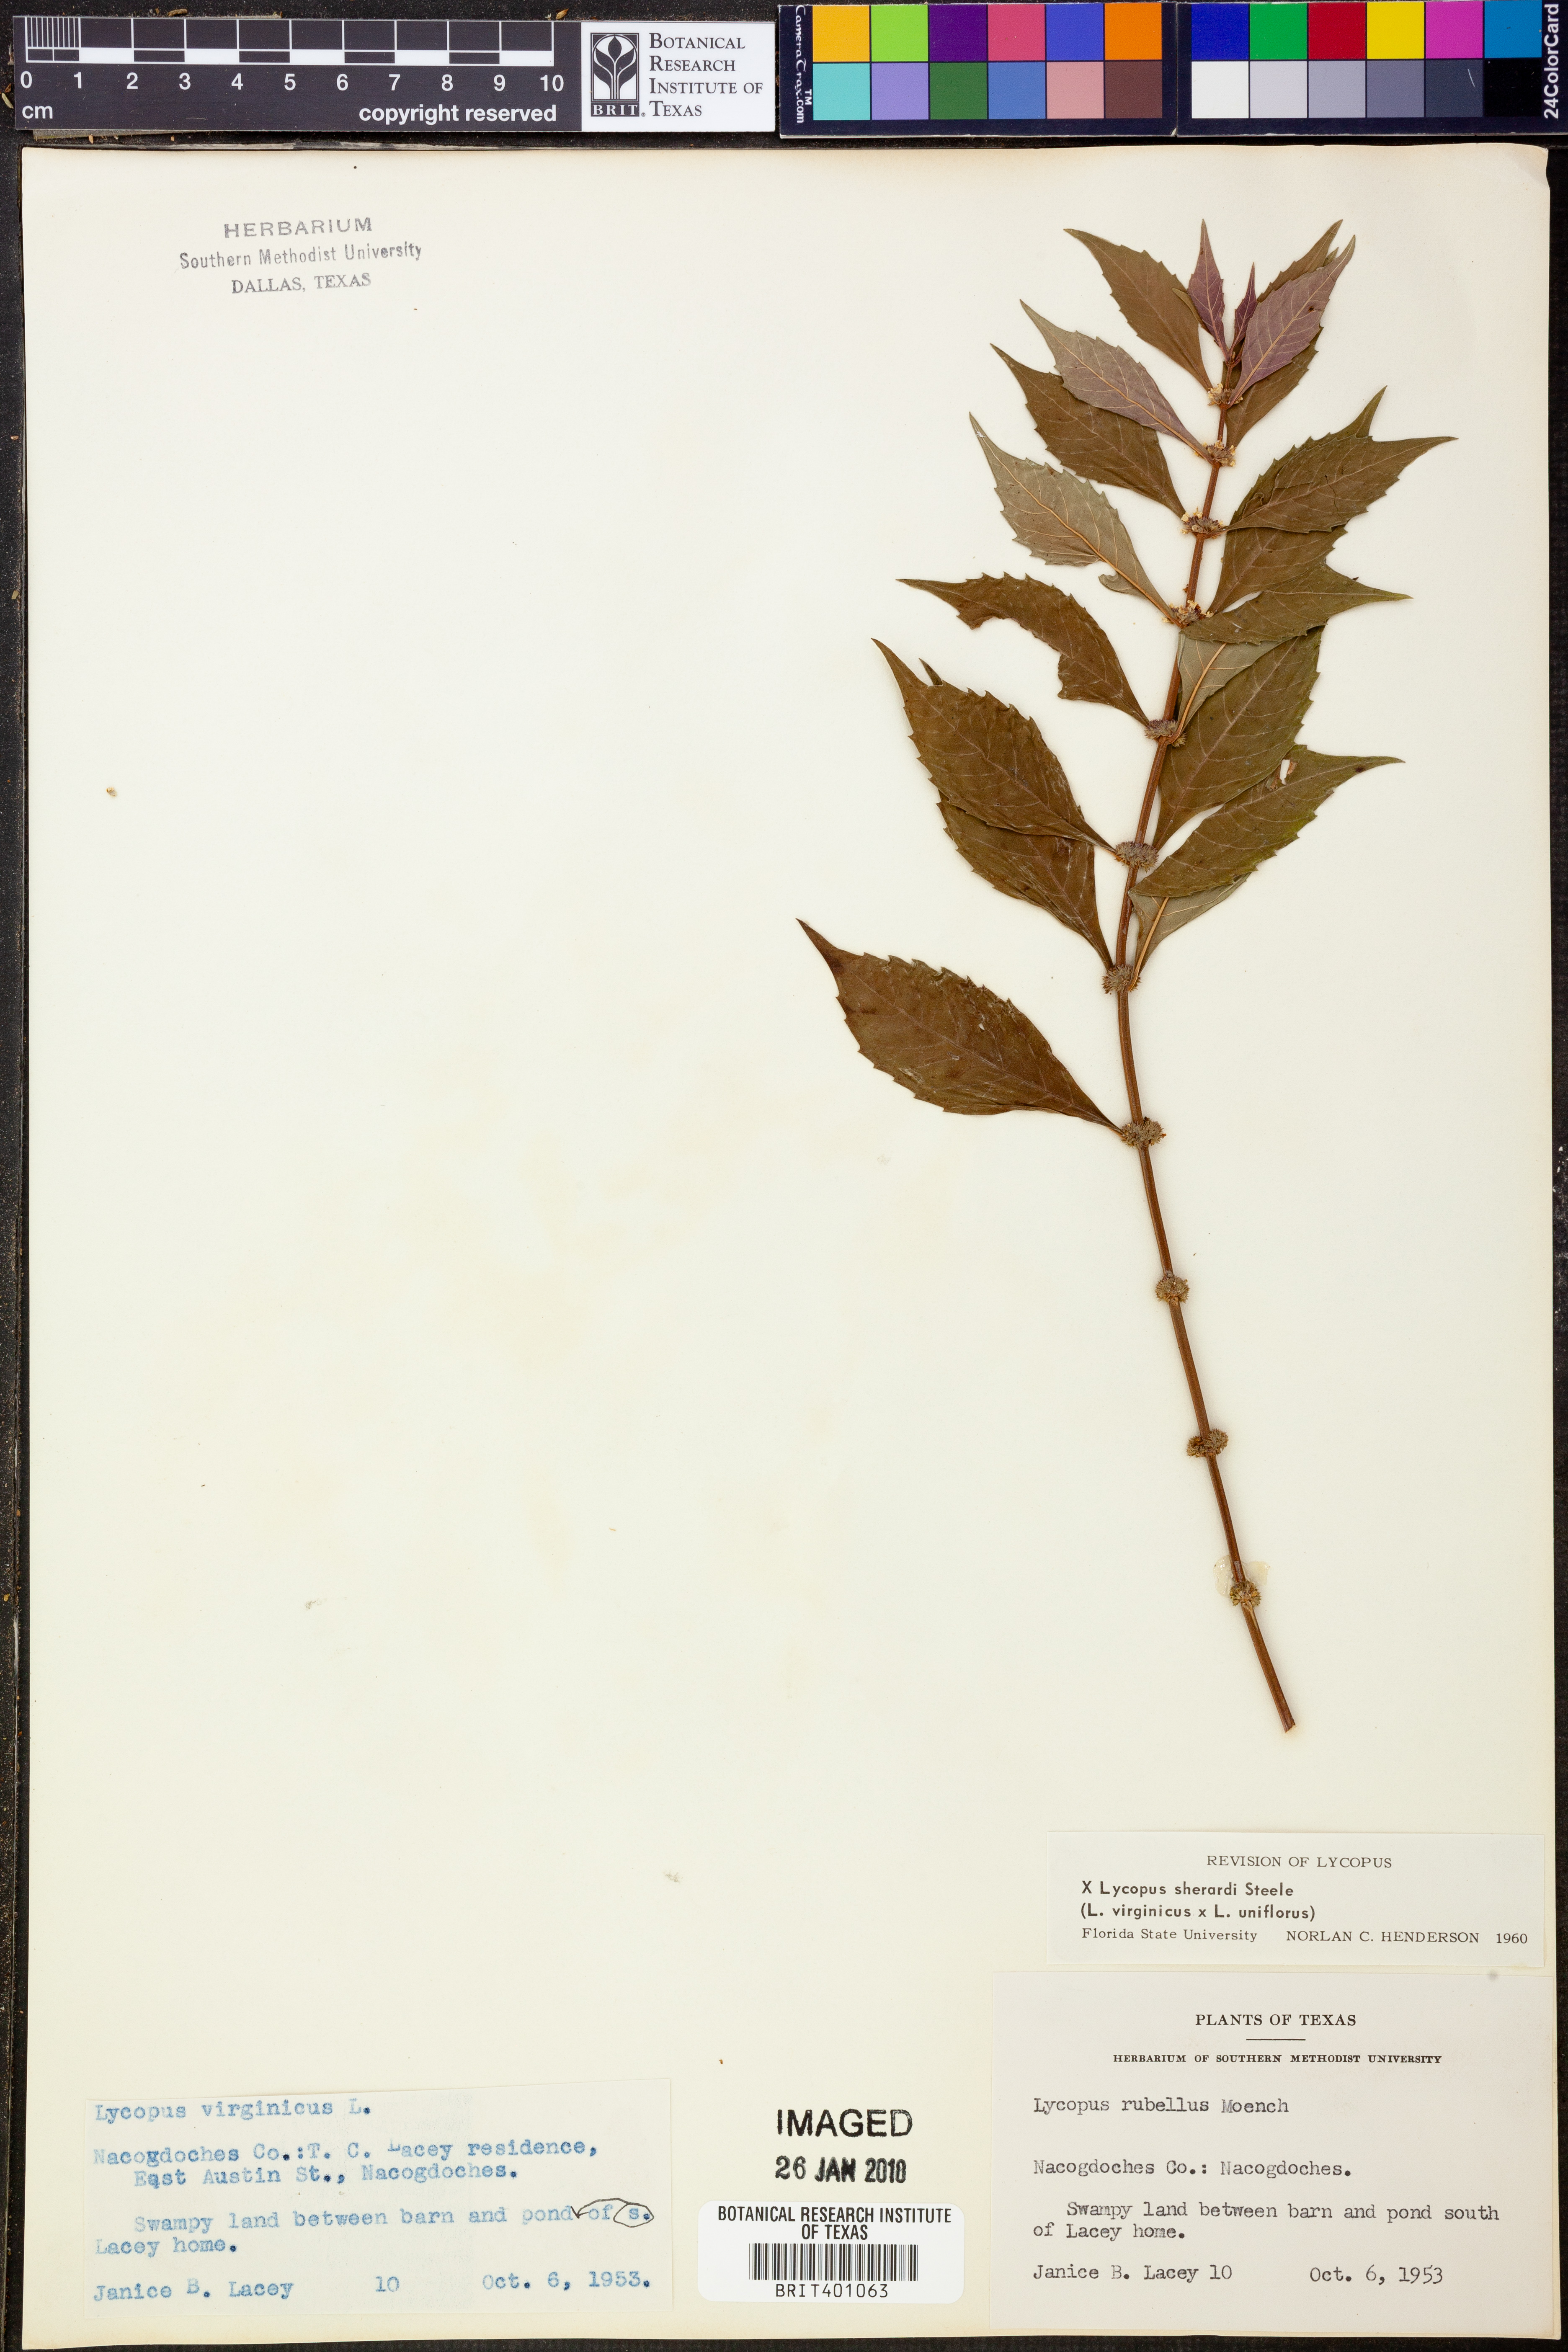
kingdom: Plantae
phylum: Tracheophyta
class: Magnoliopsida
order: Lamiales
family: Lamiaceae
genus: Lycopus
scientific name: Lycopus sherardii
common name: Sherard's water-horehound
